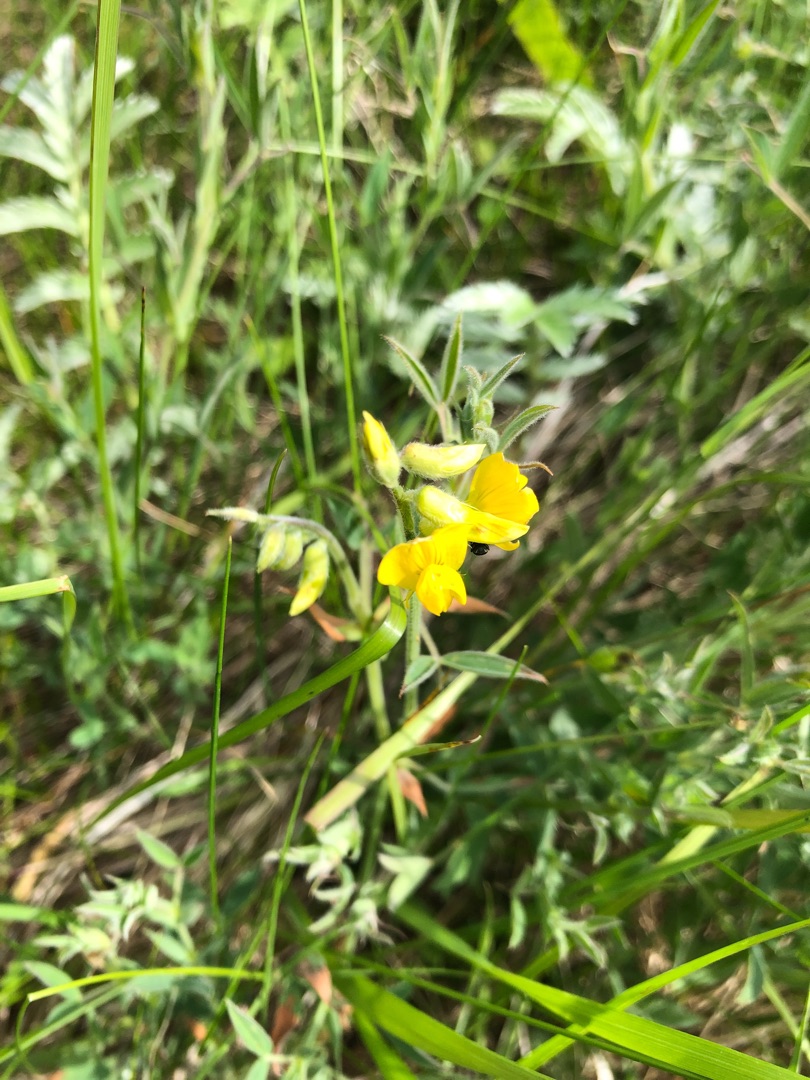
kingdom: Plantae
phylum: Tracheophyta
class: Magnoliopsida
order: Fabales
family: Fabaceae
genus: Lathyrus
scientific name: Lathyrus pratensis
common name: Gul fladbælg
